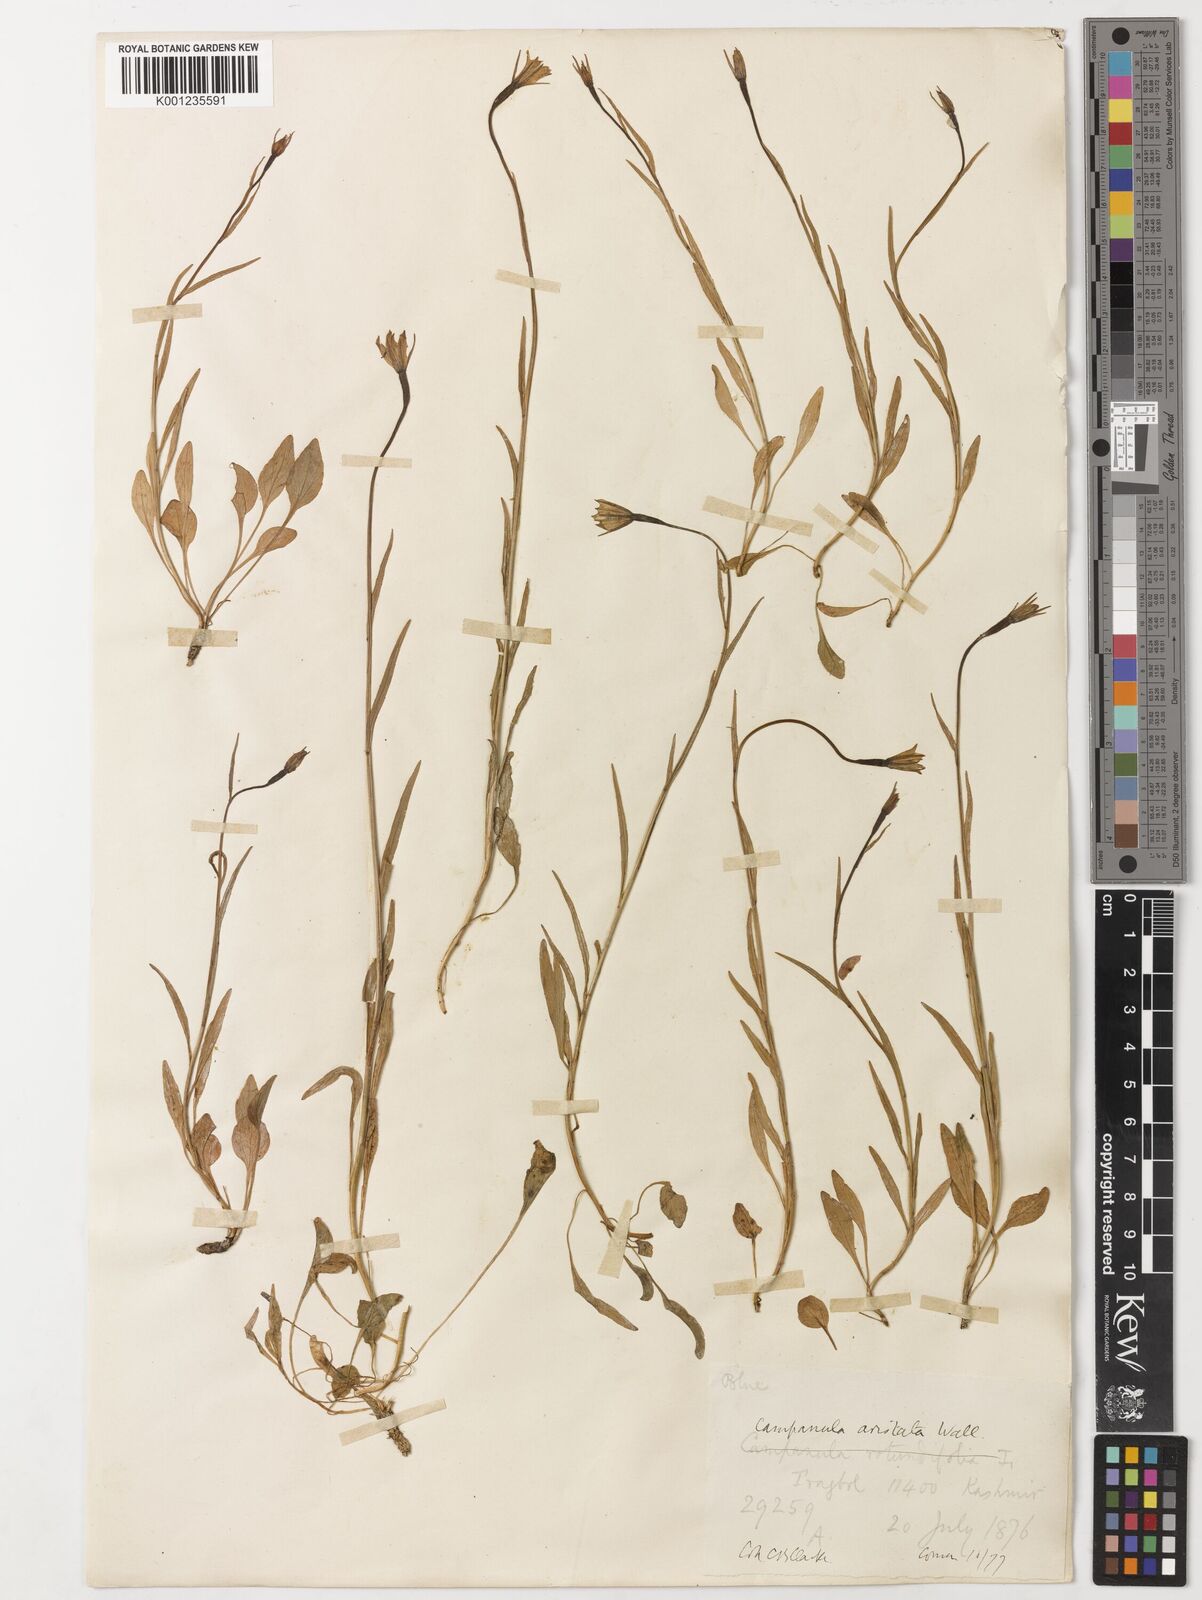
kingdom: Plantae
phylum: Tracheophyta
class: Magnoliopsida
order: Asterales
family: Campanulaceae
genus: Campanula
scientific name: Campanula rotundifolia
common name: Harebell
